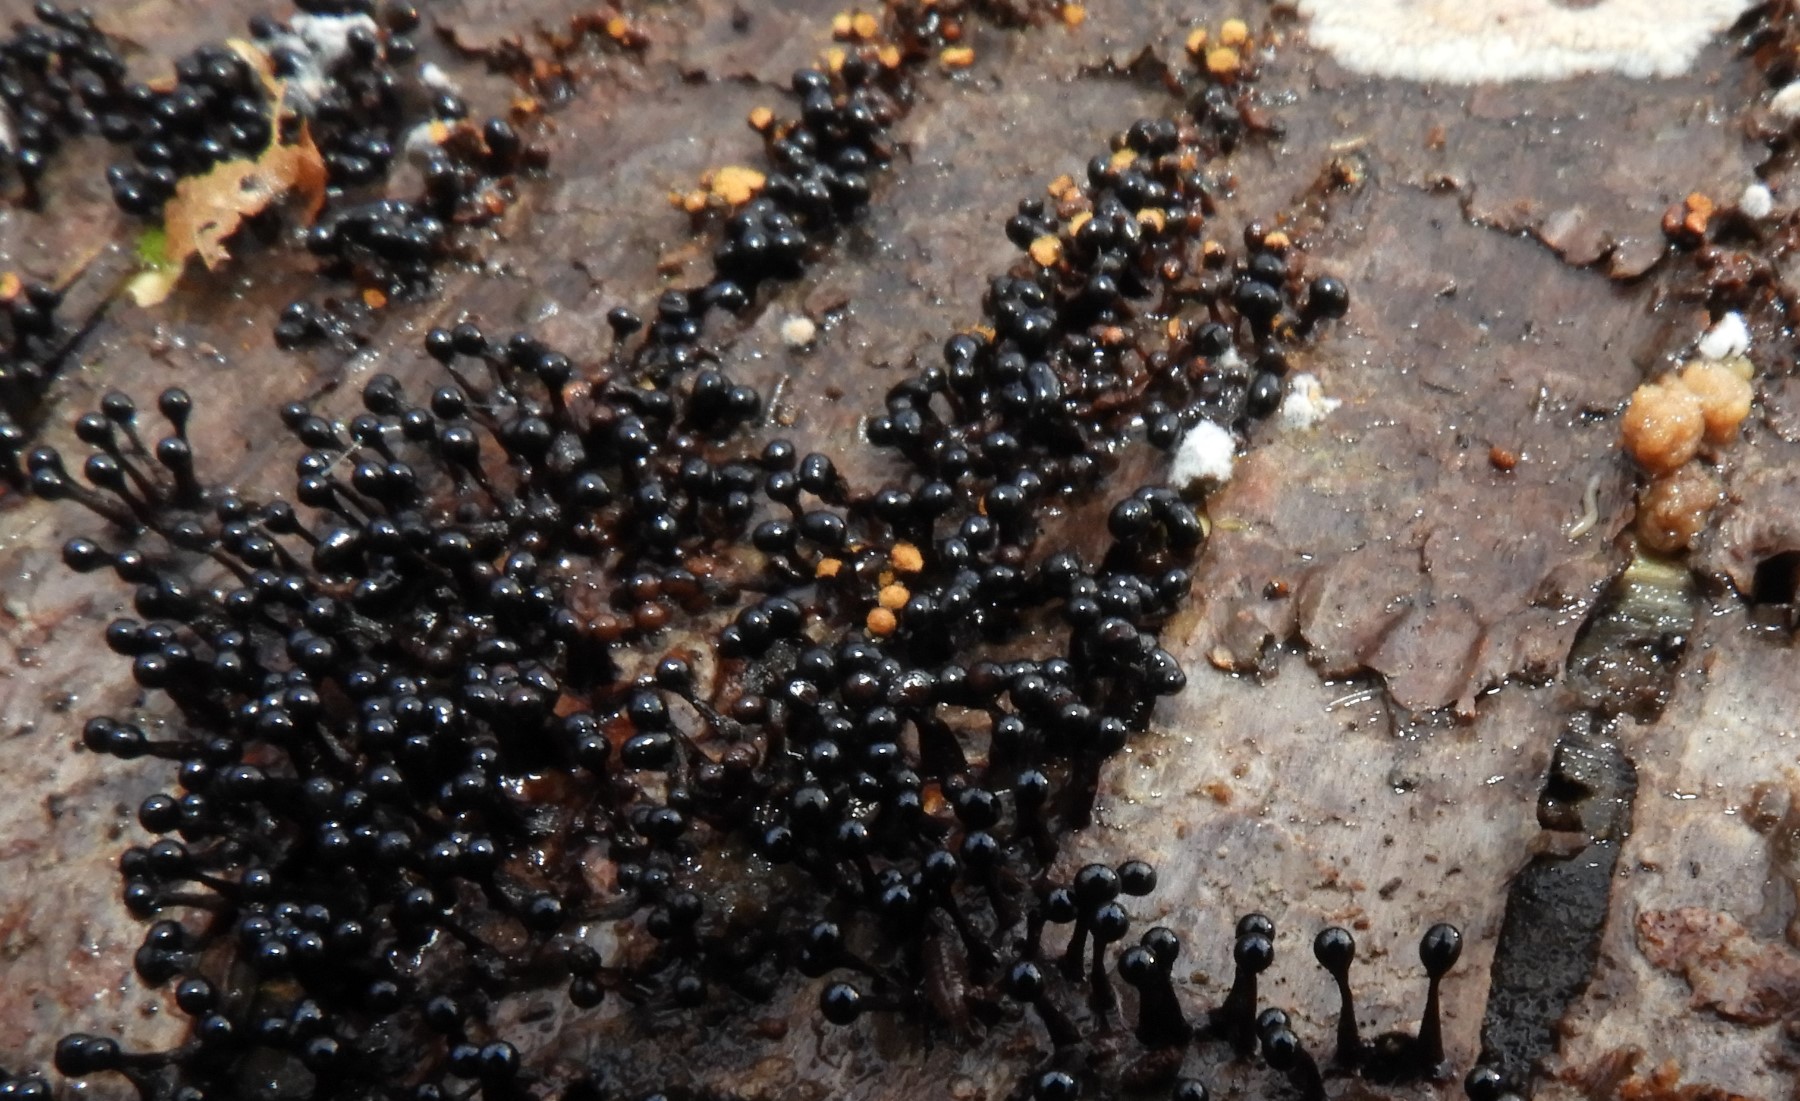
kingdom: Protozoa
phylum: Mycetozoa
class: Myxomycetes
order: Trichiales
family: Trichiaceae
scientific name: Trichiaceae
